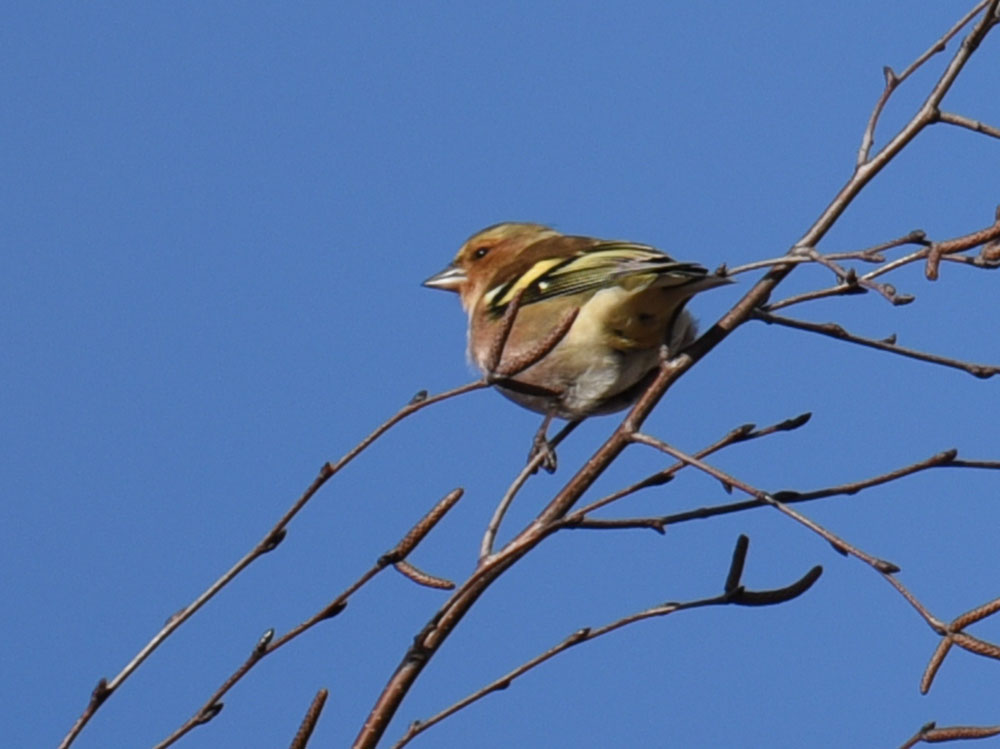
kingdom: Animalia
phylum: Chordata
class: Aves
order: Passeriformes
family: Fringillidae
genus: Fringilla
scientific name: Fringilla coelebs
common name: Common chaffinch
